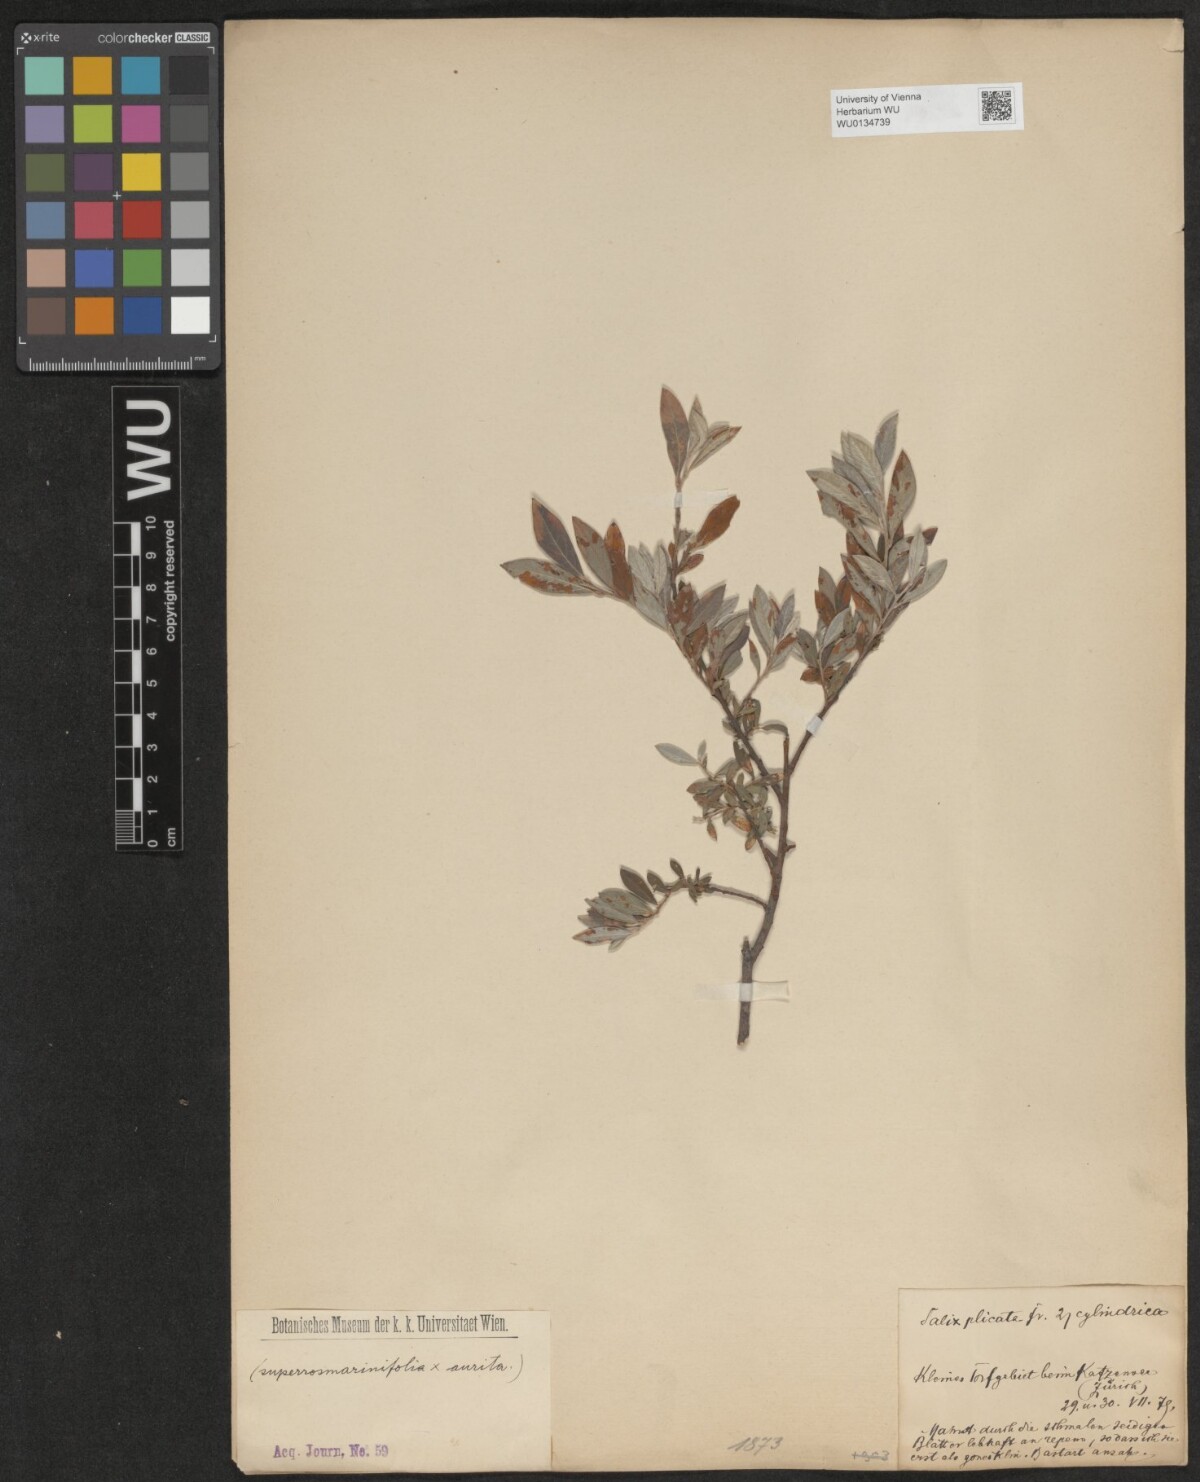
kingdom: Plantae
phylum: Tracheophyta
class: Magnoliopsida
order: Malpighiales
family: Salicaceae
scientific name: Salicaceae
